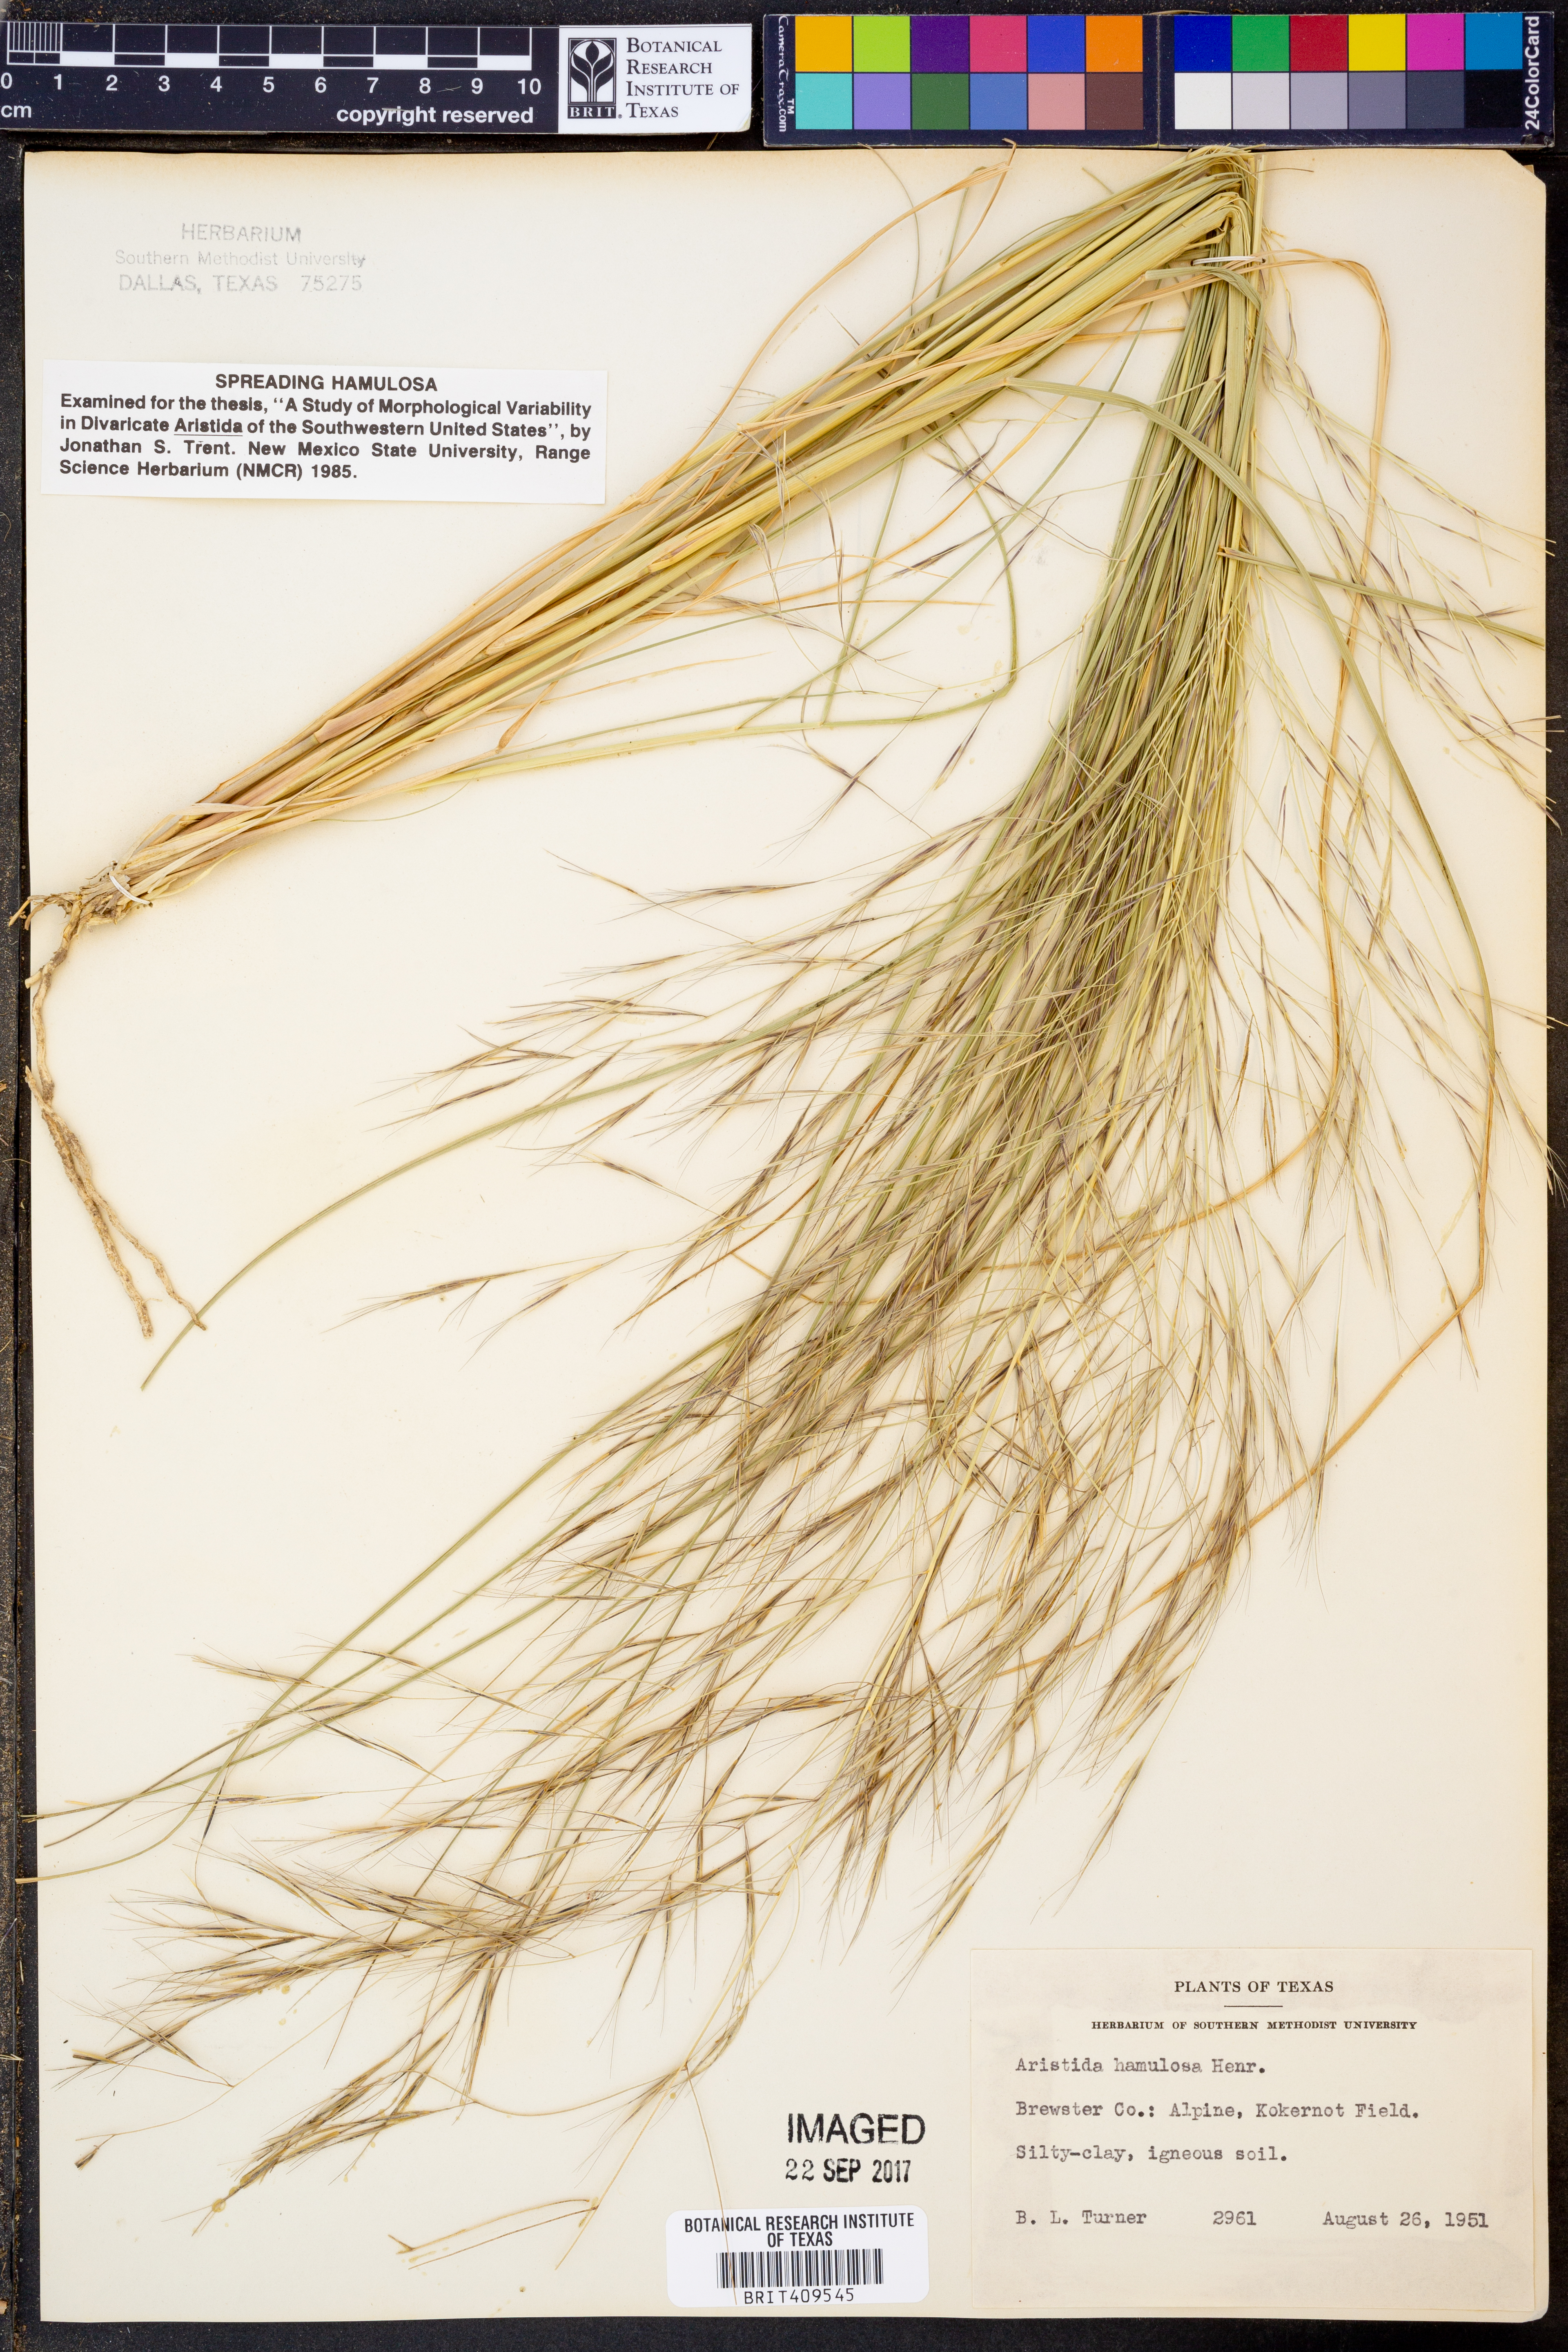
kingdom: Plantae
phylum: Tracheophyta
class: Liliopsida
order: Poales
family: Poaceae
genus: Aristida
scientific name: Aristida hamulosa
